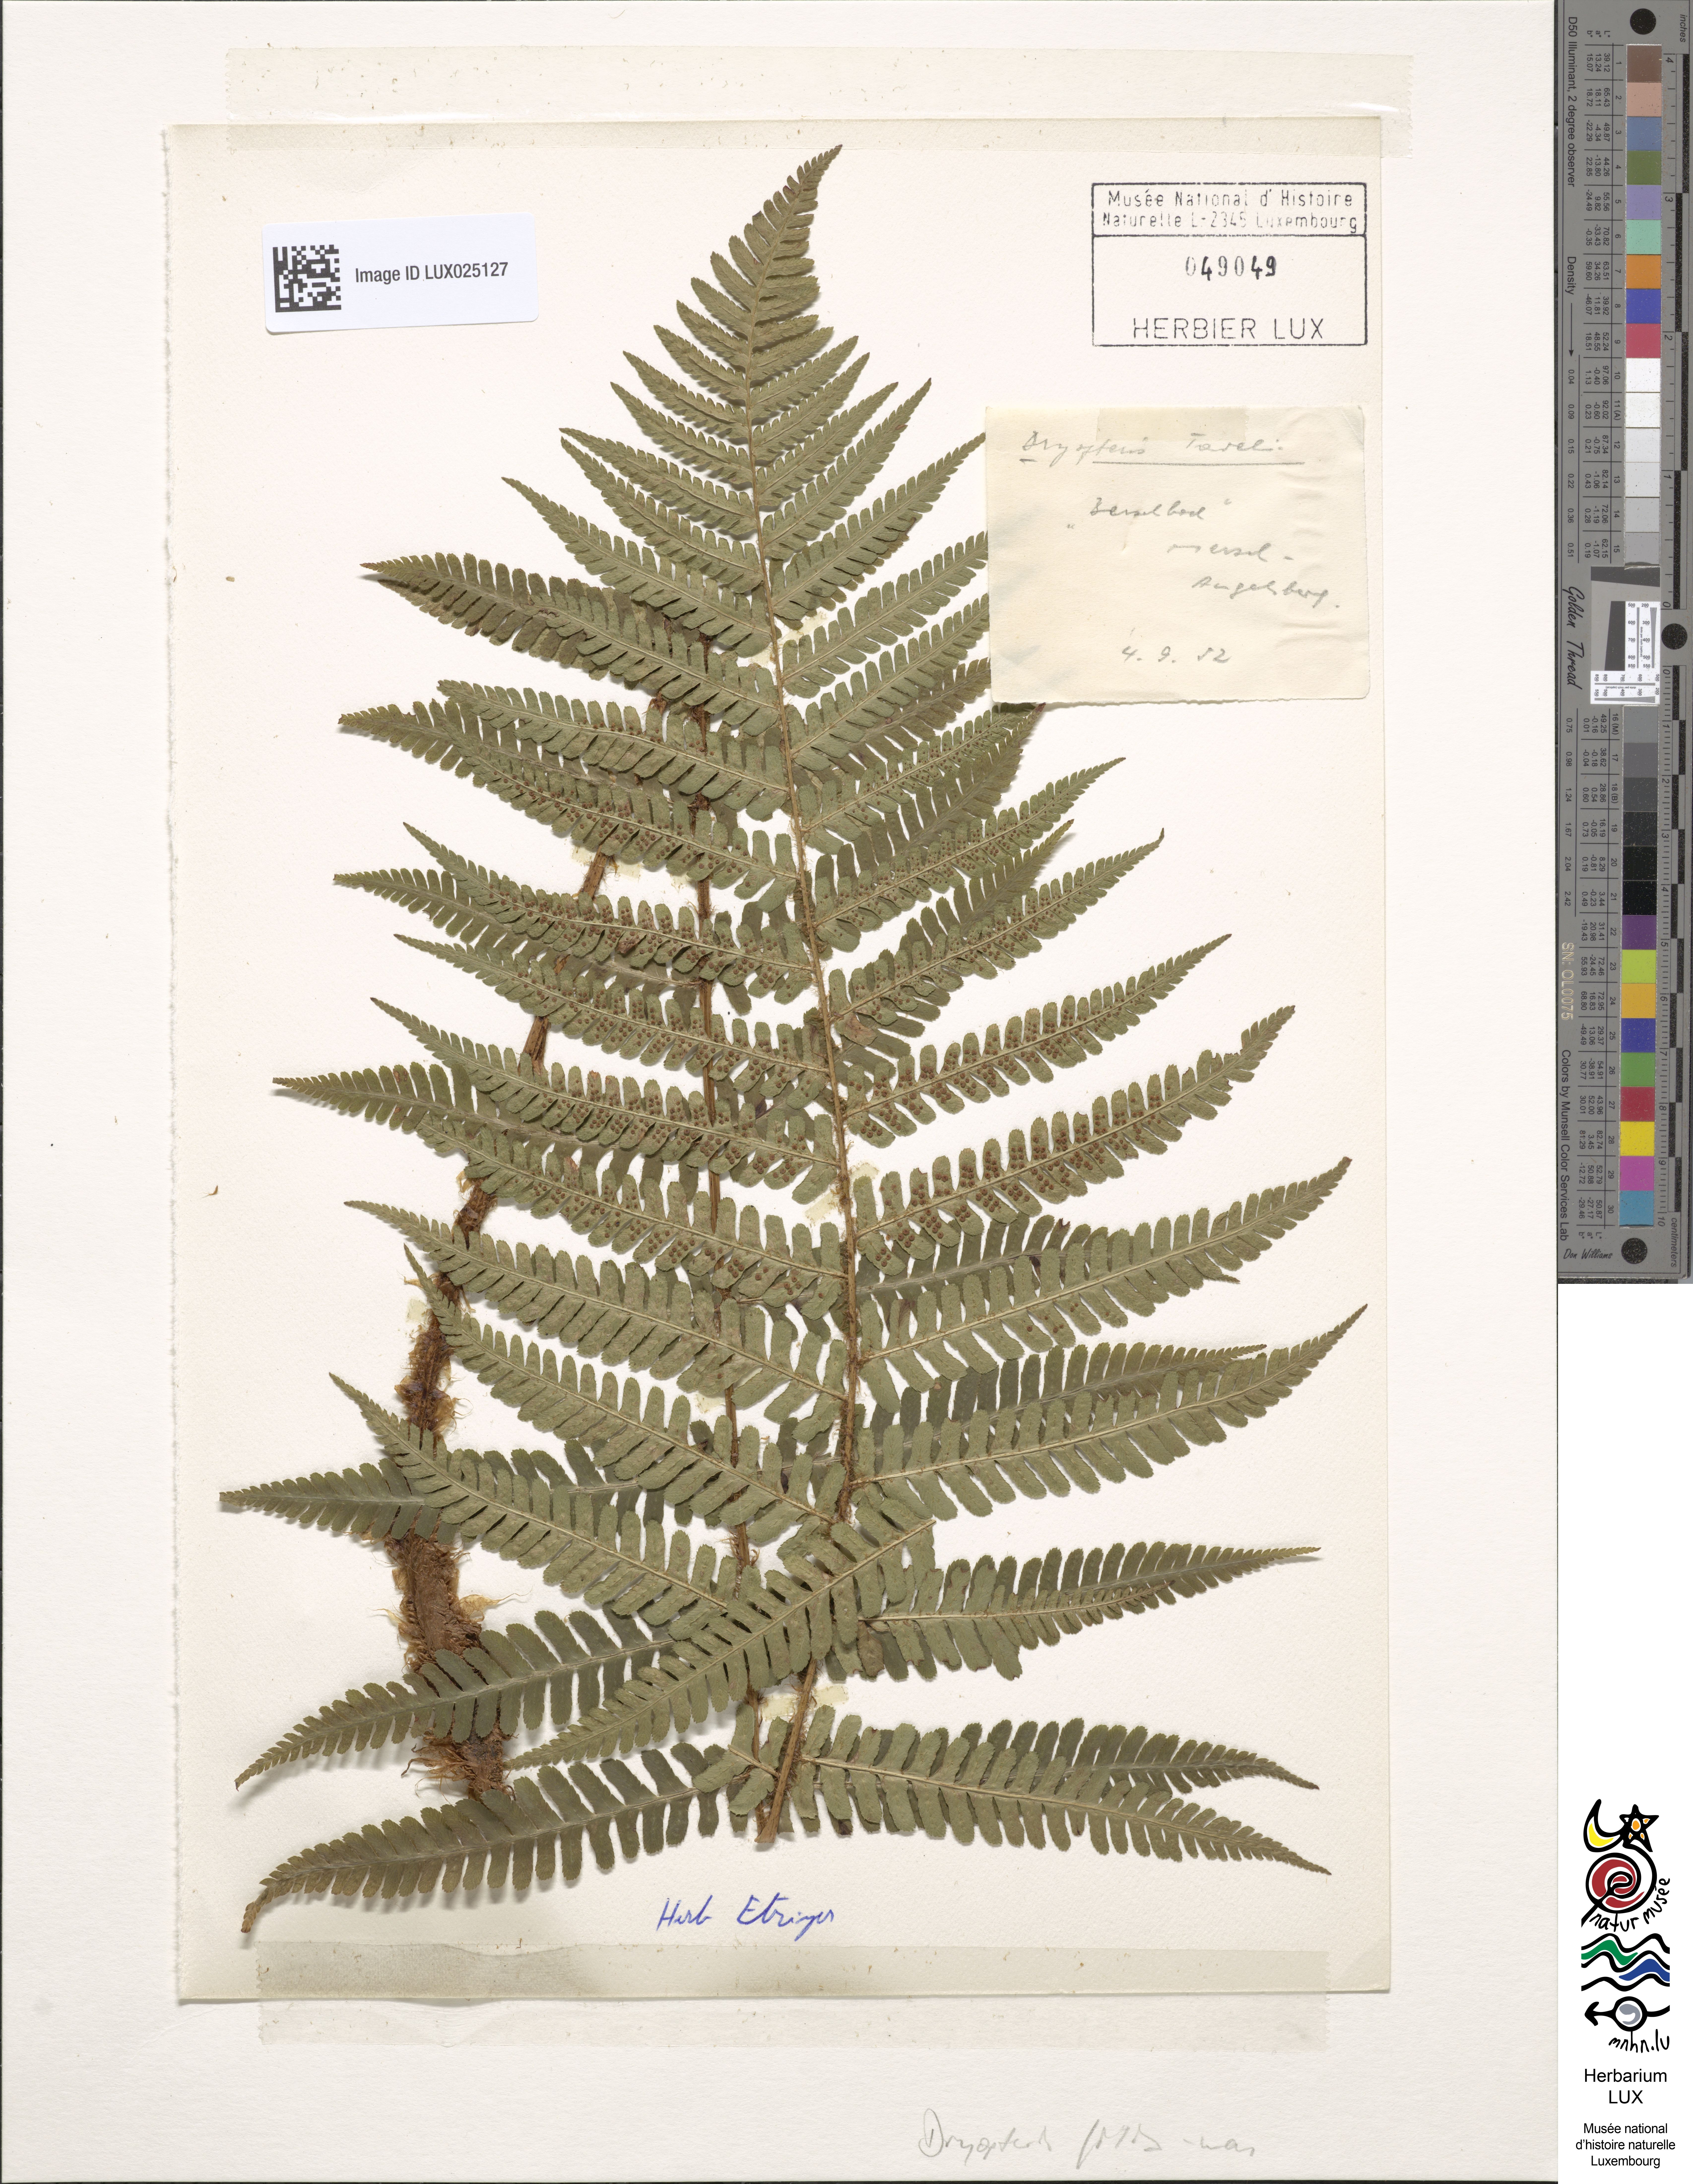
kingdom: Plantae
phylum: Tracheophyta
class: Polypodiopsida
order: Polypodiales
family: Dryopteridaceae
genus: Dryopteris
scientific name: Dryopteris borreri
